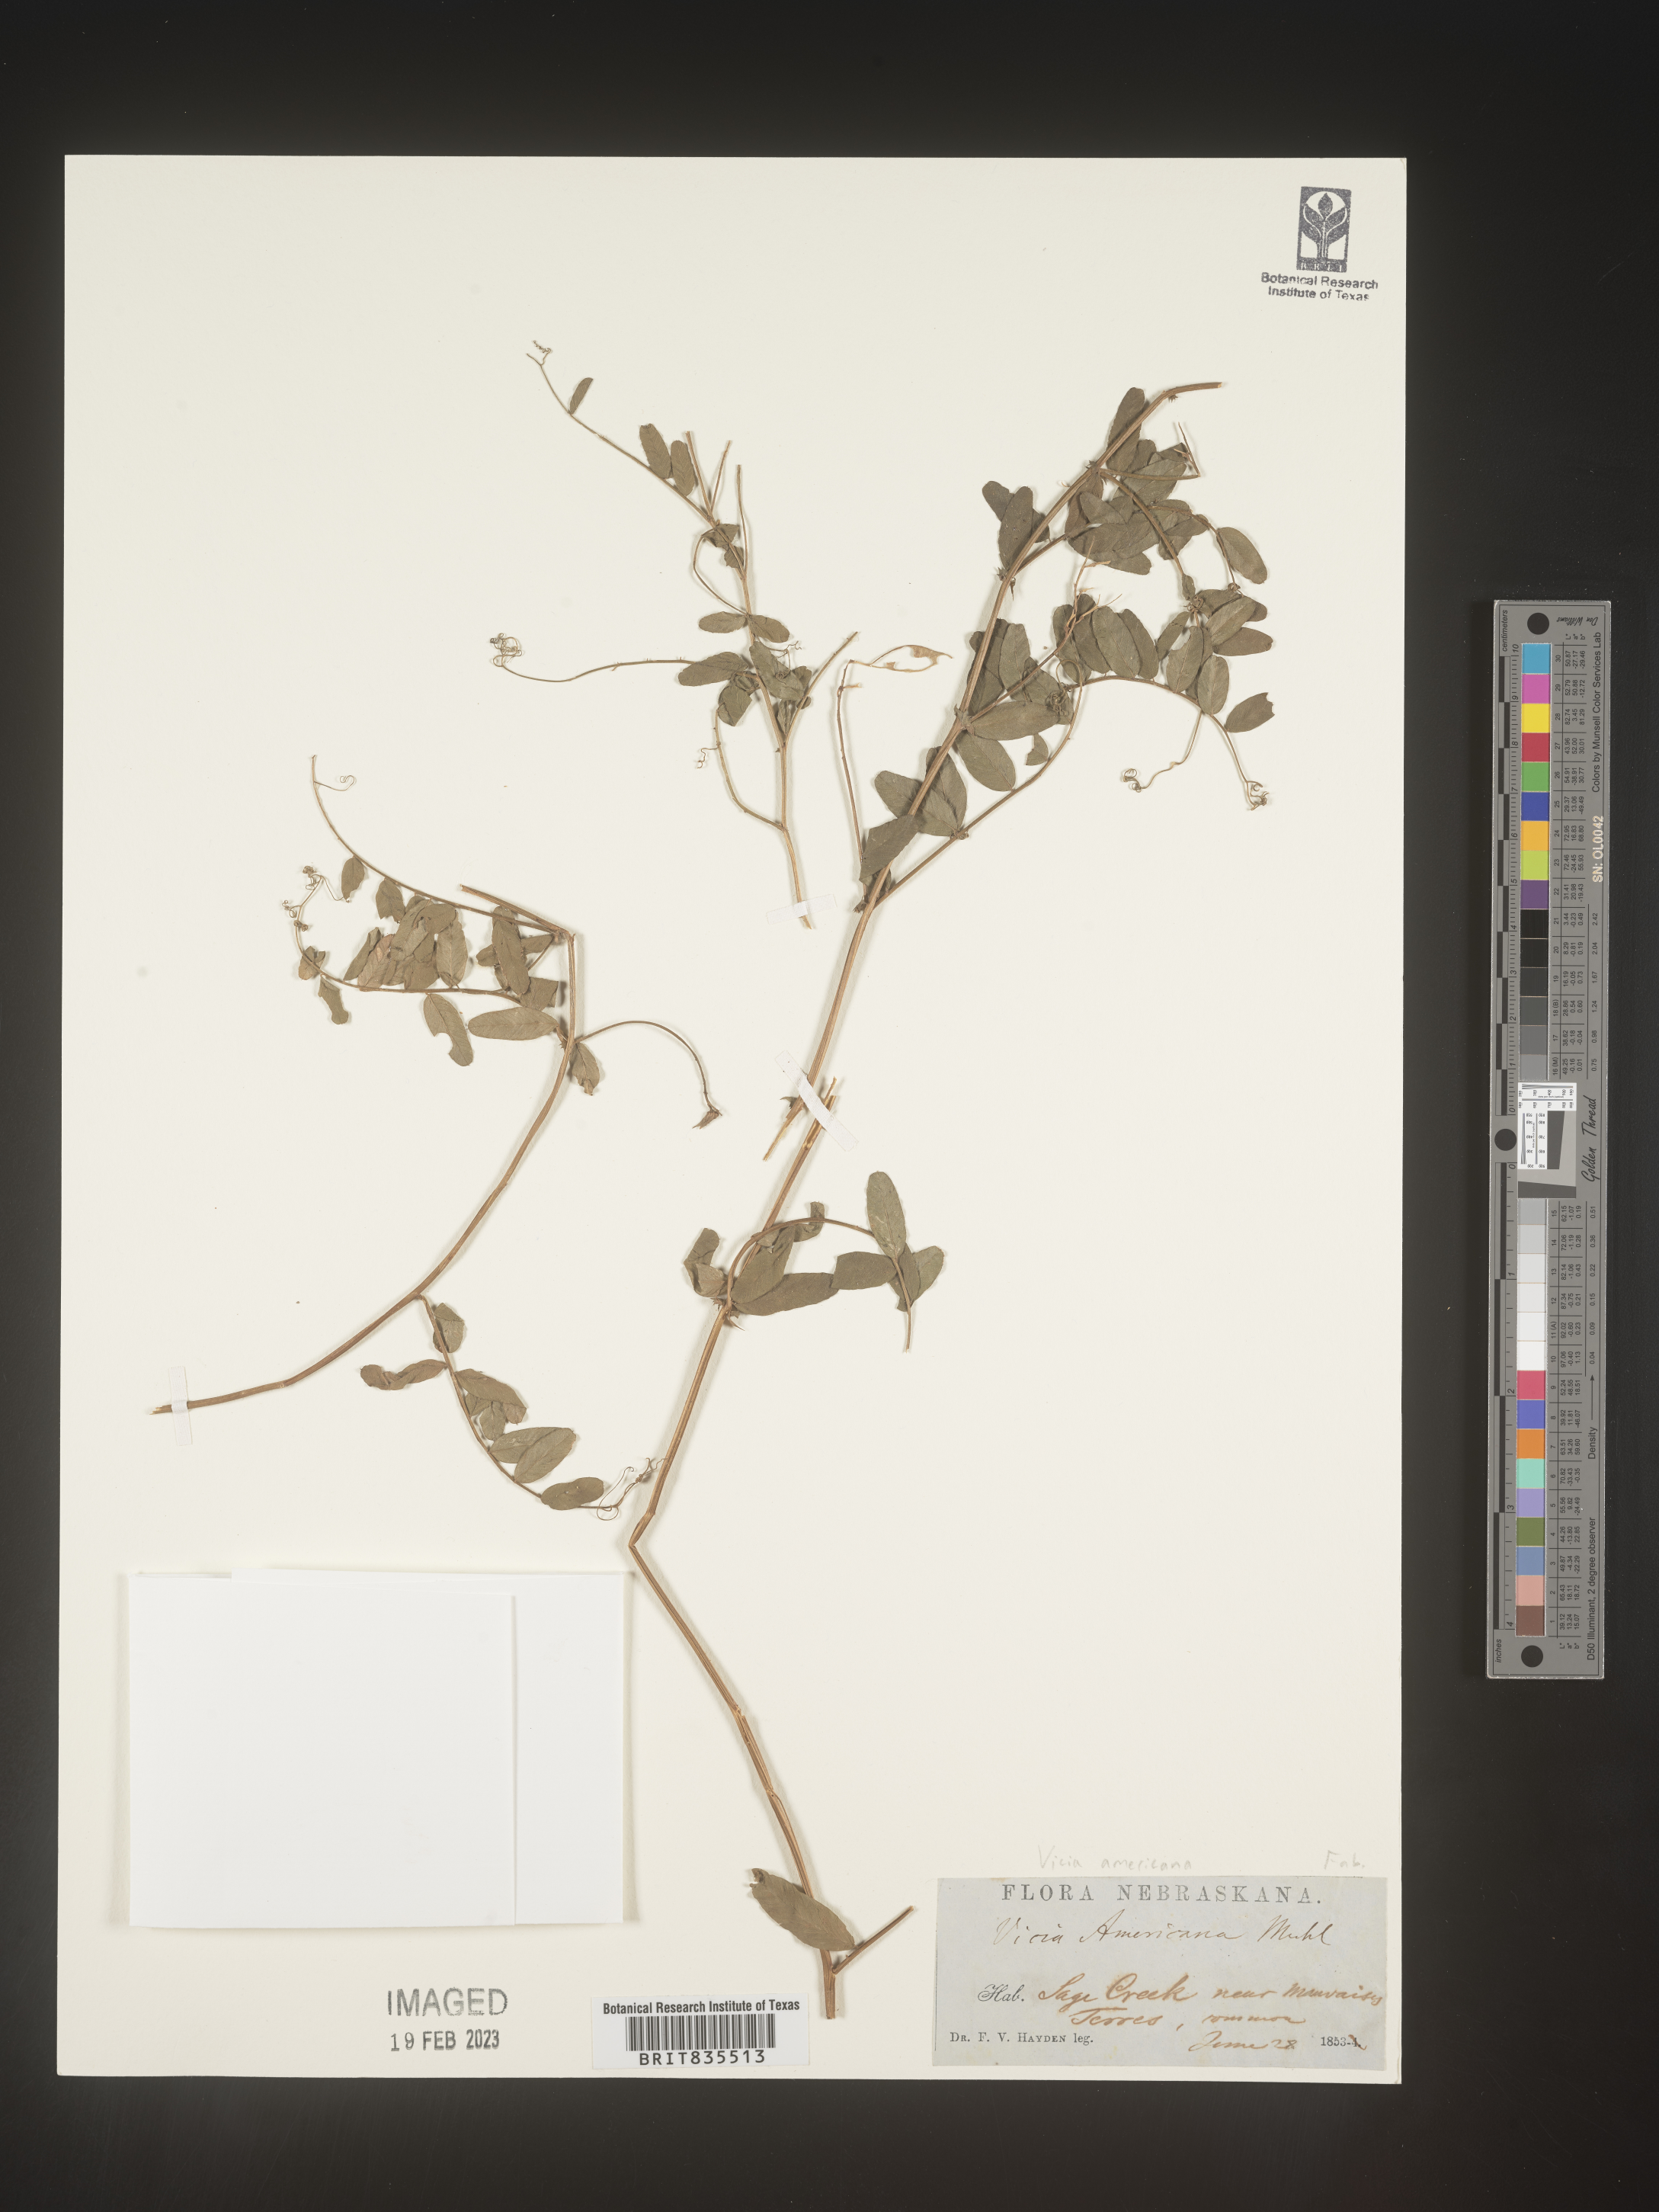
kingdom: Plantae
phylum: Tracheophyta
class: Magnoliopsida
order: Fabales
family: Fabaceae
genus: Vicia
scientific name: Vicia americana
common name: American vetch
